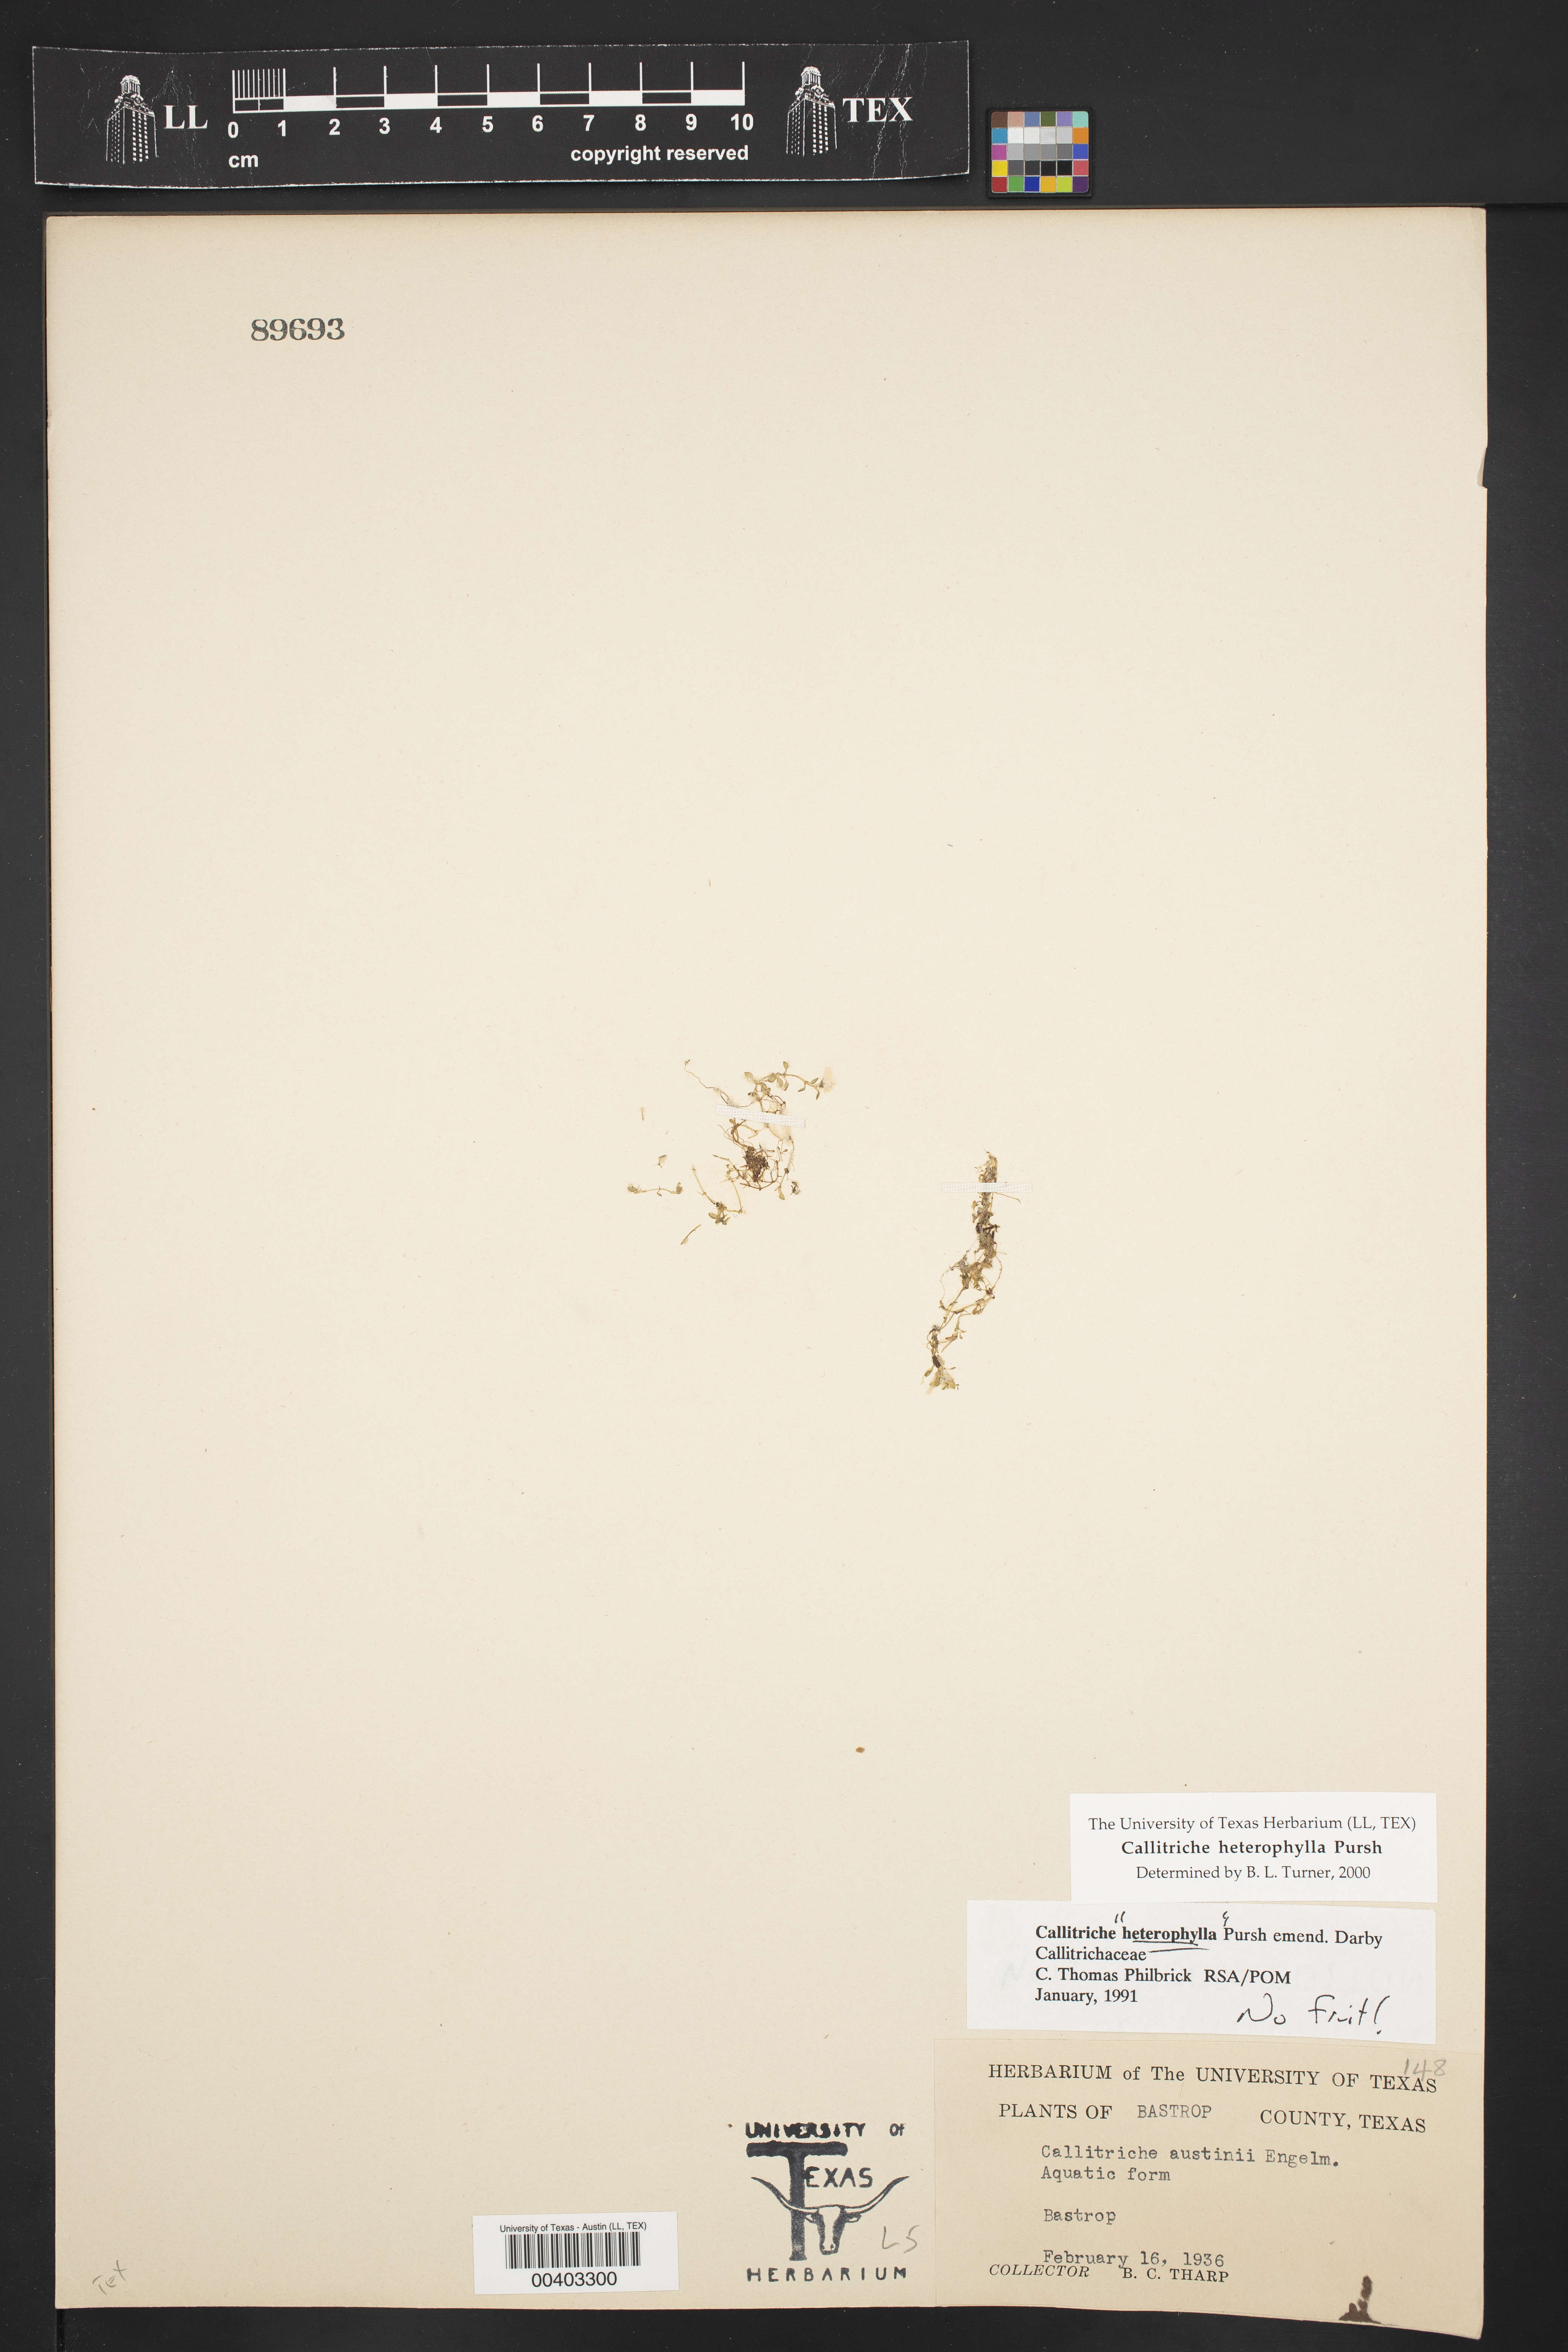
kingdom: Plantae
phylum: Tracheophyta
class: Magnoliopsida
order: Lamiales
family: Plantaginaceae
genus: Callitriche
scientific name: Callitriche heterophylla
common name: Two-headed water-starwort
